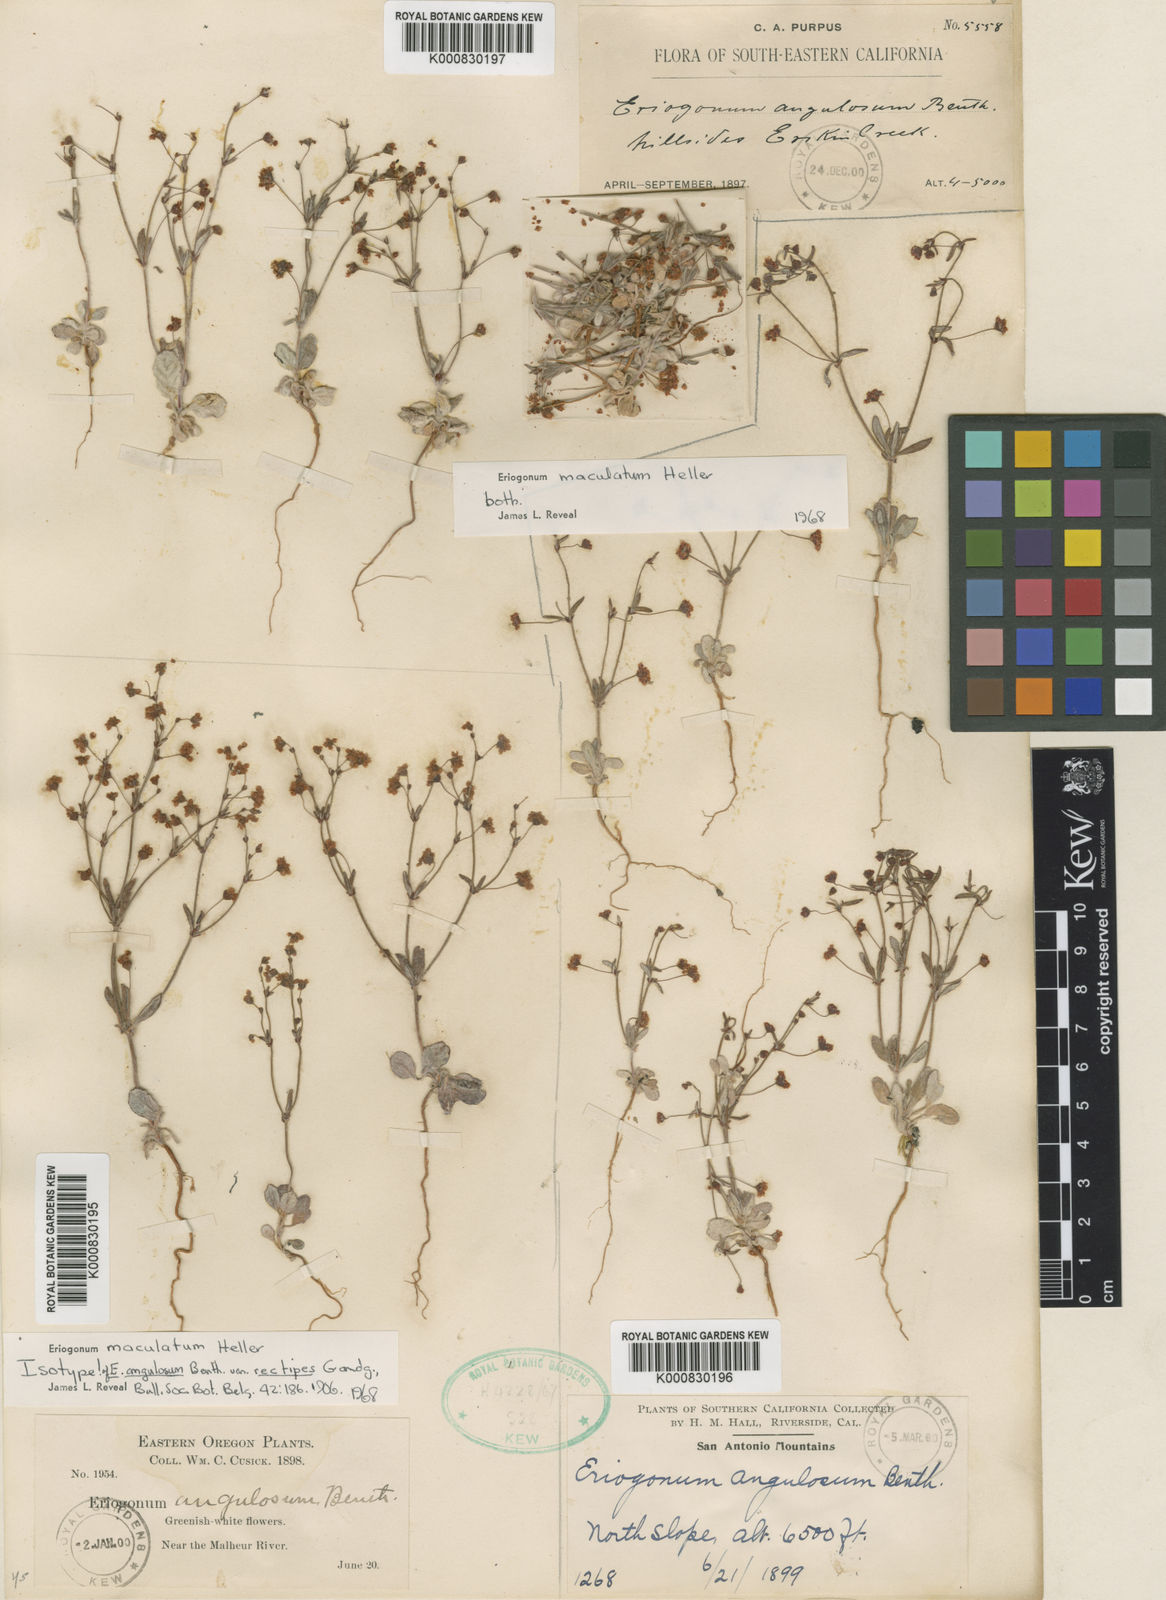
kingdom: Plantae
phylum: Tracheophyta
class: Magnoliopsida
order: Caryophyllales
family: Polygonaceae
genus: Eriogonum
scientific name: Eriogonum maculatum
